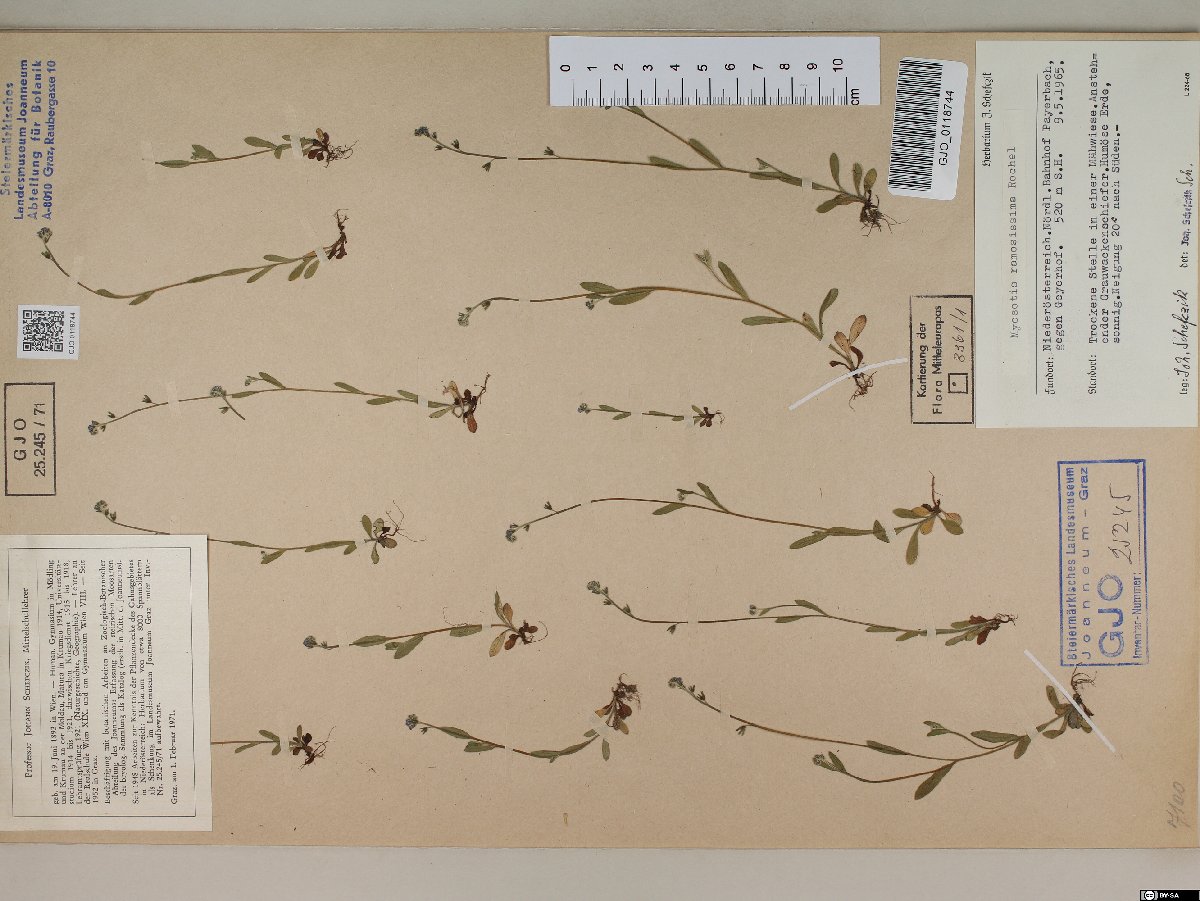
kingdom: Plantae
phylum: Tracheophyta
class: Magnoliopsida
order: Boraginales
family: Boraginaceae
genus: Myosotis
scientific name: Myosotis ramosissima
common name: Early forget-me-not
